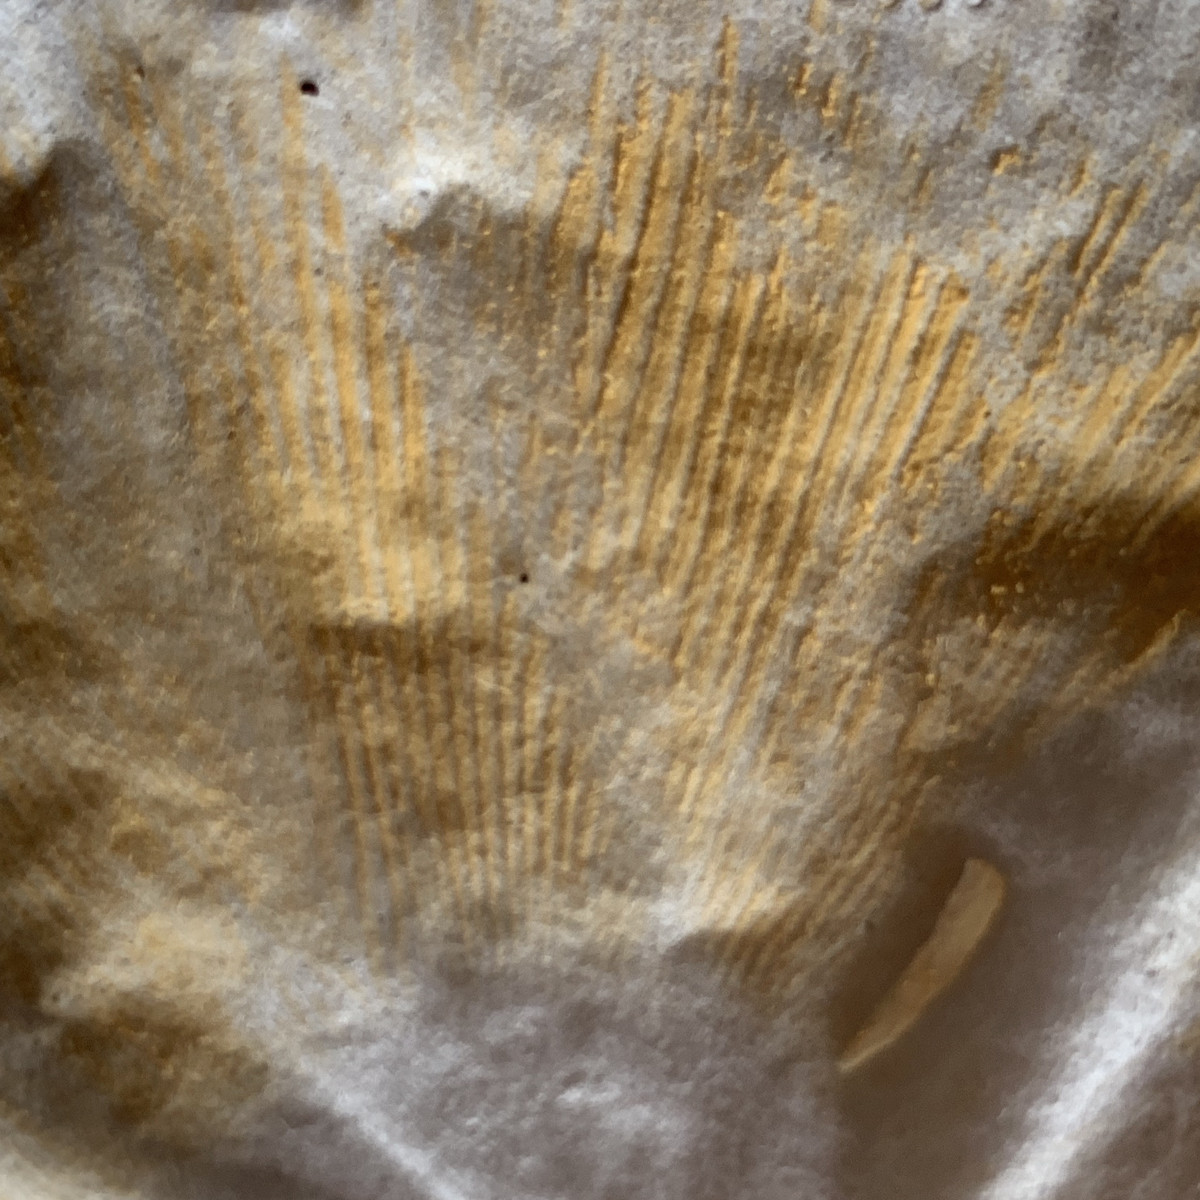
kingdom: Fungi
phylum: Basidiomycota
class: Agaricomycetes
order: Russulales
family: Russulaceae
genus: Russula
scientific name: Russula olivacea
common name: stor skørhat
